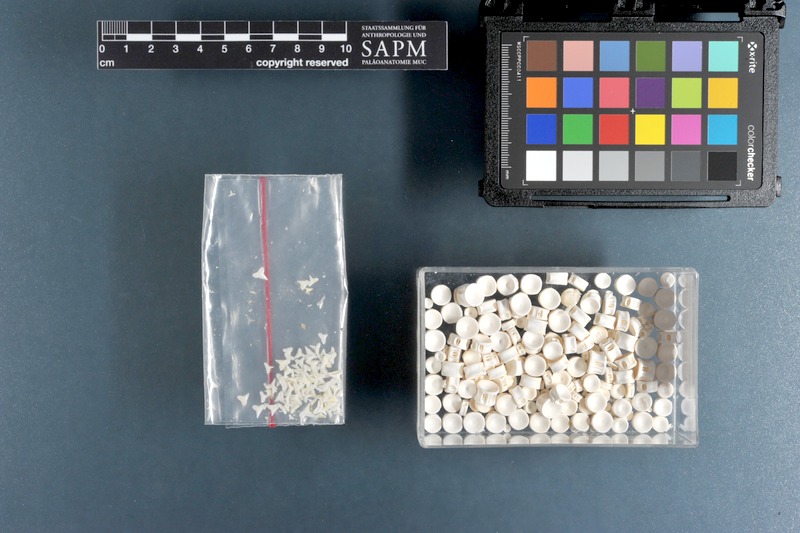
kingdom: Animalia
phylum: Chordata
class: Elasmobranchii
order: Carcharhiniformes
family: Carcharhinidae
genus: Carcharhinus
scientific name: Carcharhinus brachyurus
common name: Bronze whaler
